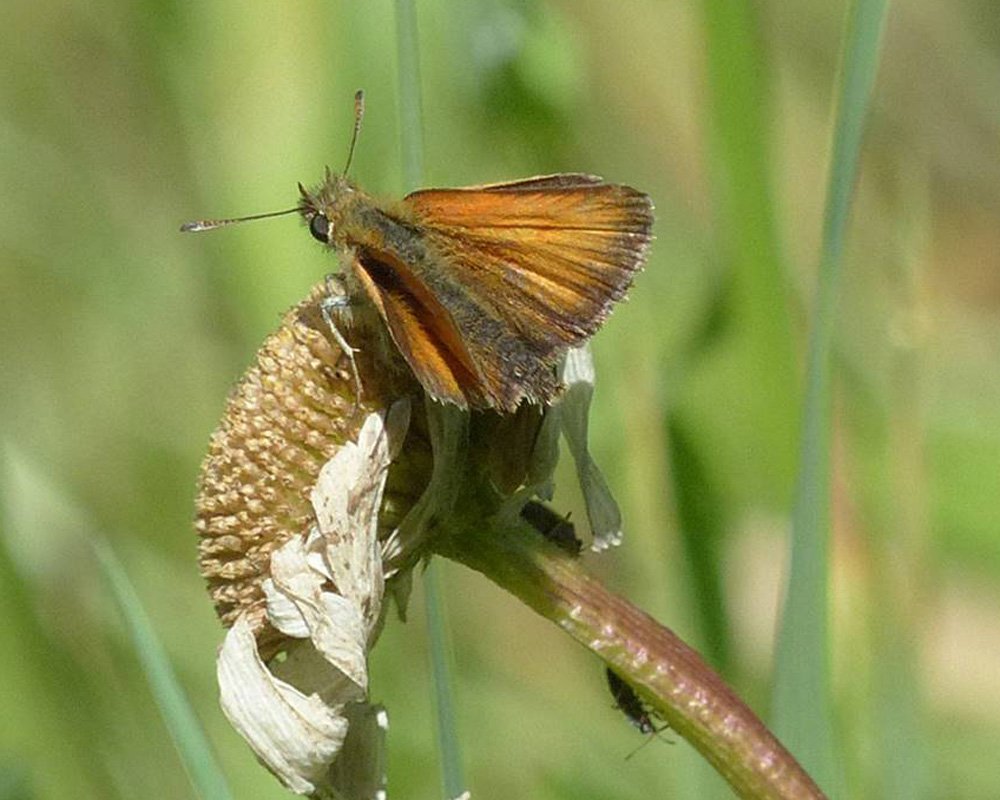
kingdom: Animalia
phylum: Arthropoda
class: Insecta
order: Lepidoptera
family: Hesperiidae
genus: Thymelicus
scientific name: Thymelicus lineola
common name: European Skipper
